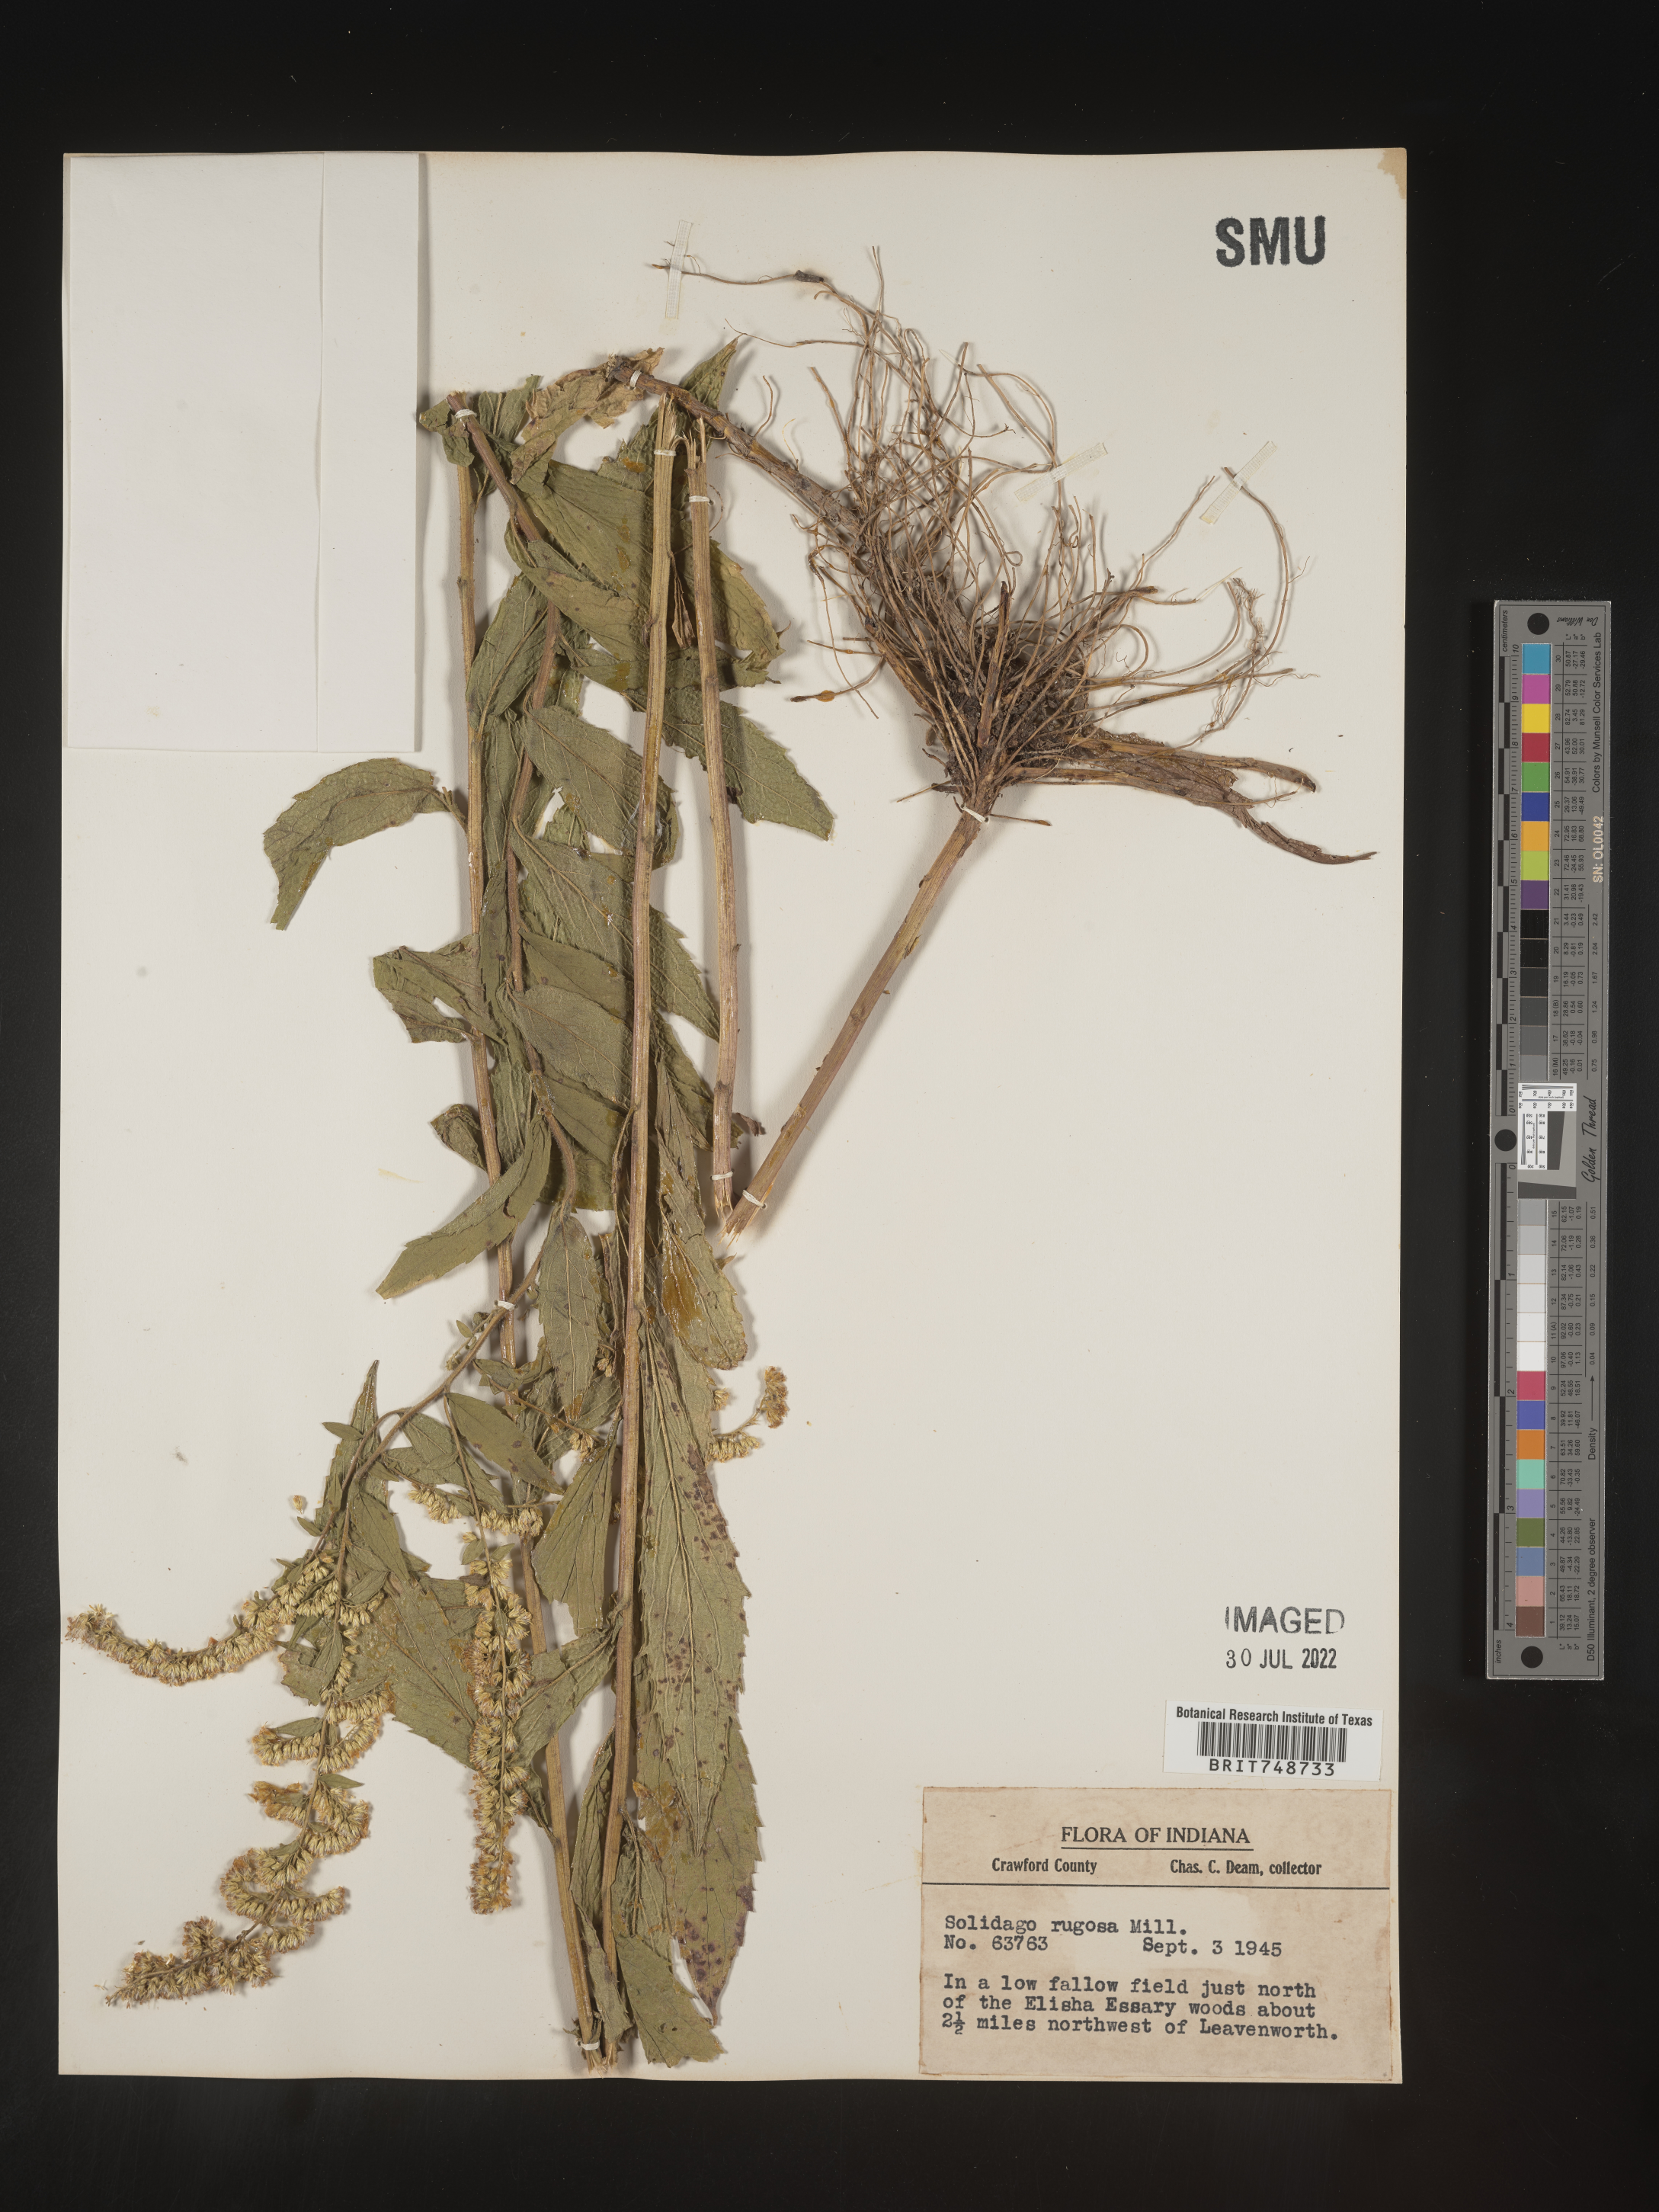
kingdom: Plantae
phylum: Tracheophyta
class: Magnoliopsida
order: Asterales
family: Asteraceae
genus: Solidago
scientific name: Solidago rugosa
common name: Rough-stemmed goldenrod
